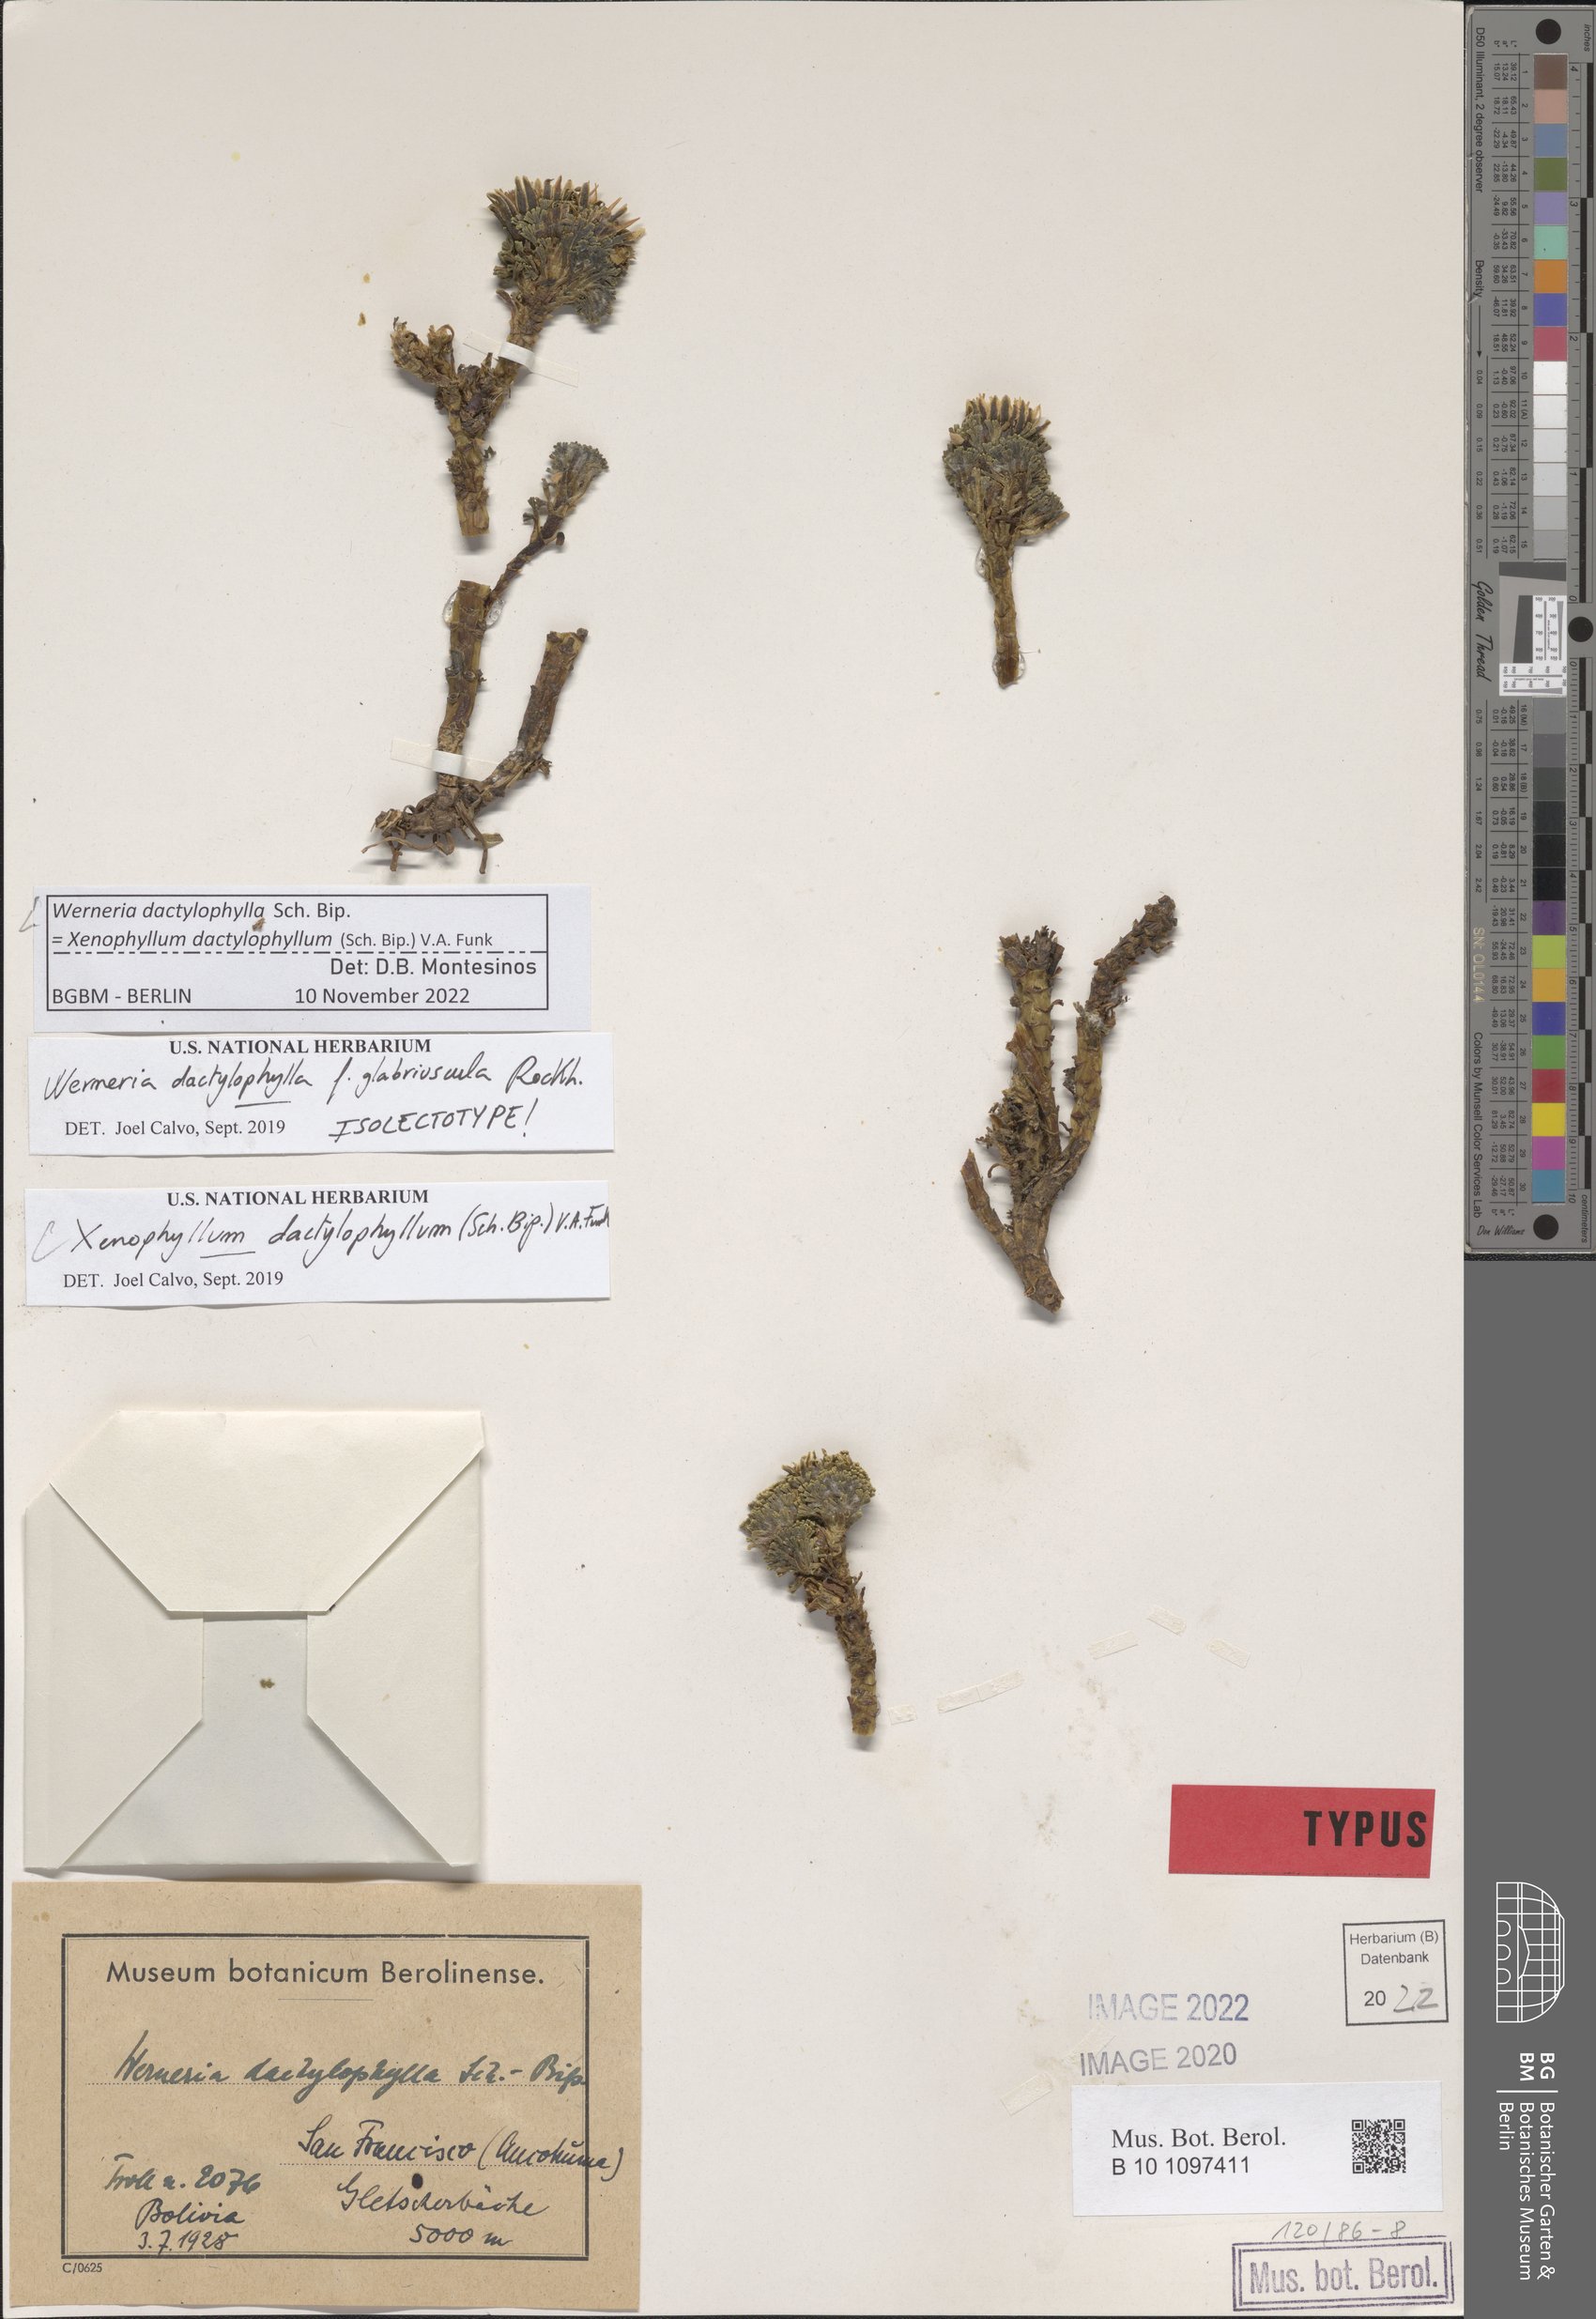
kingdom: Plantae
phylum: Tracheophyta
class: Magnoliopsida
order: Asterales
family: Asteraceae
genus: Werneria
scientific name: Werneria dactylophylla
